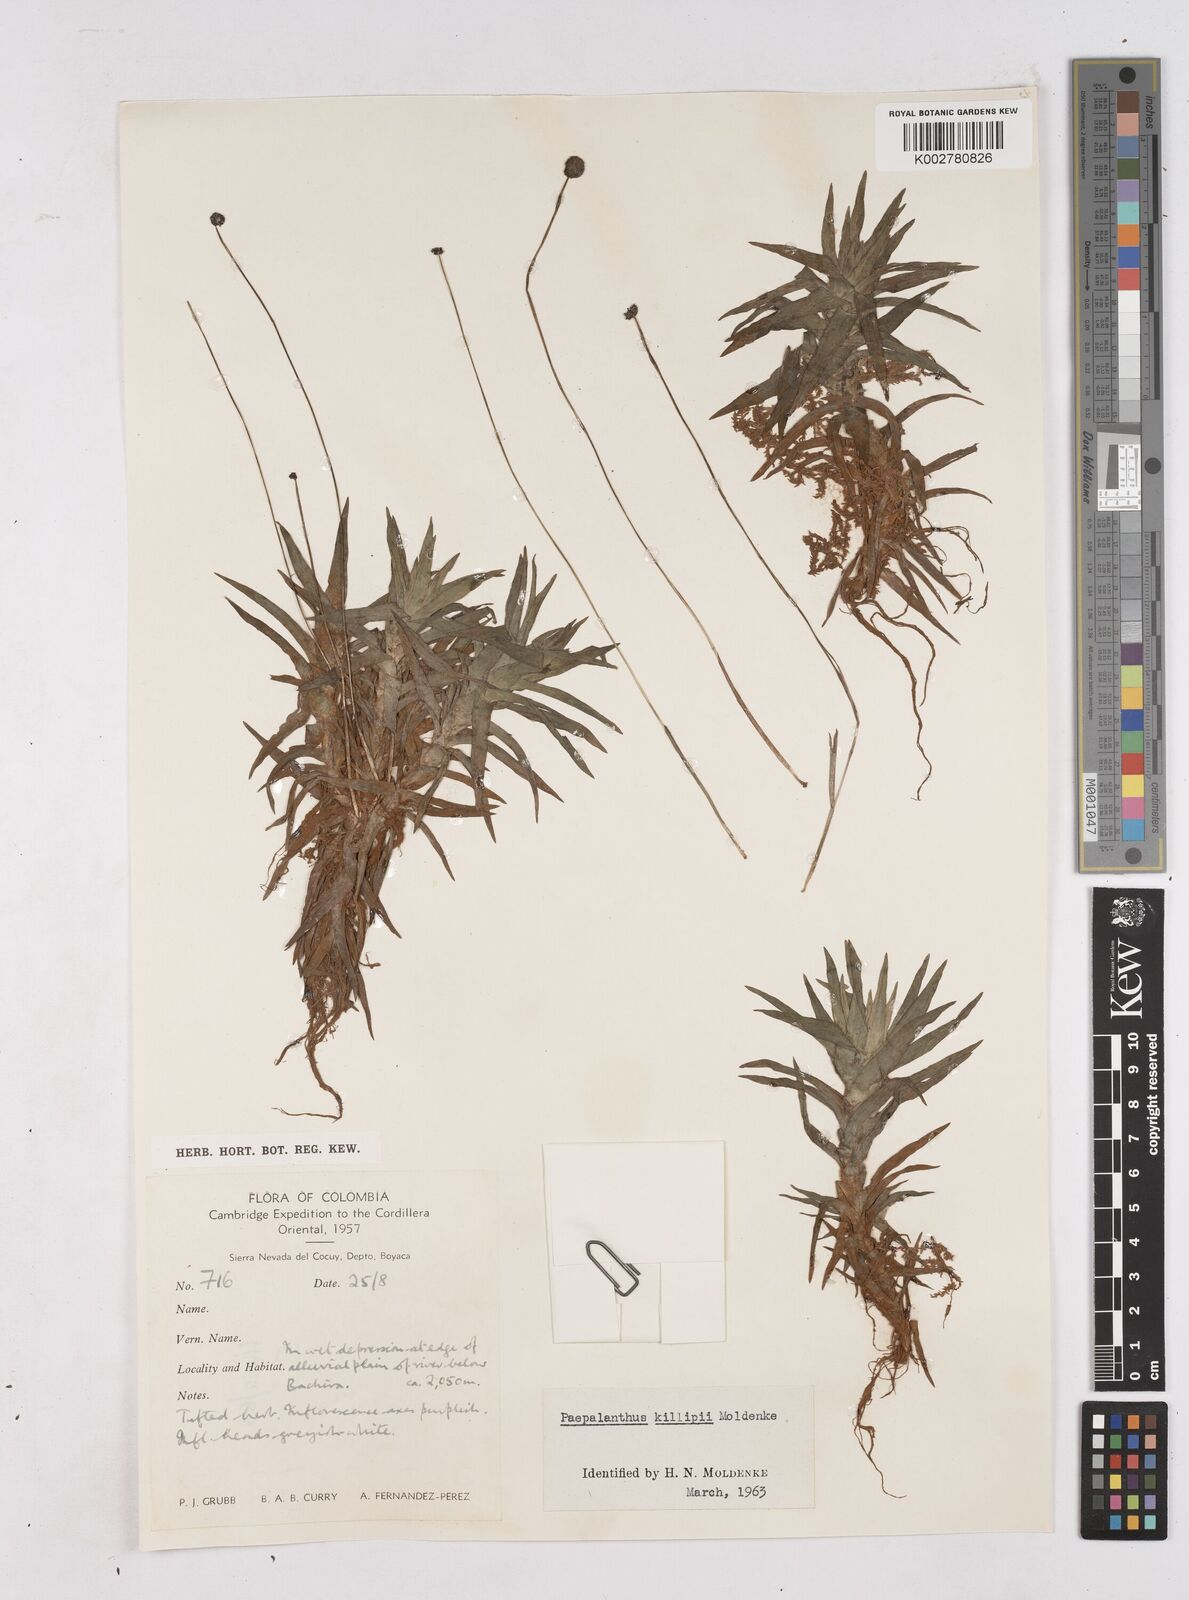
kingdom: Plantae
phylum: Tracheophyta
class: Liliopsida
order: Poales
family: Eriocaulaceae
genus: Paepalanthus
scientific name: Paepalanthus tortilis
